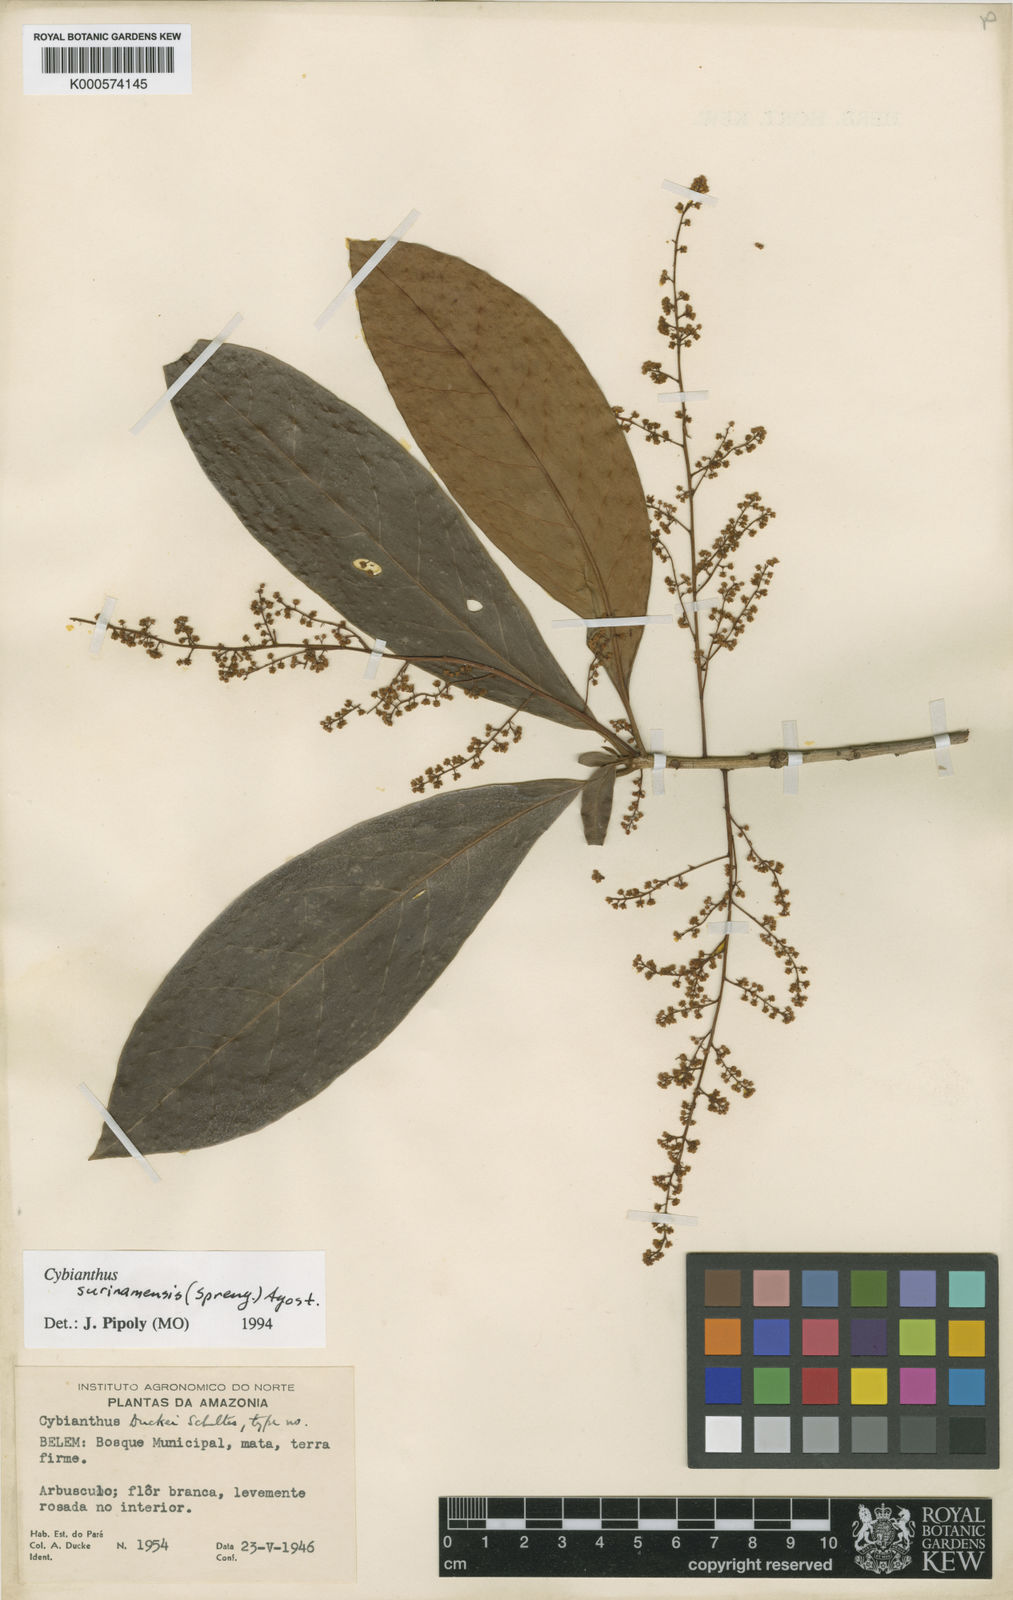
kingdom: Plantae
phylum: Tracheophyta
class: Magnoliopsida
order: Ericales
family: Primulaceae
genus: Cybianthus
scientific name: Cybianthus surinamensis
